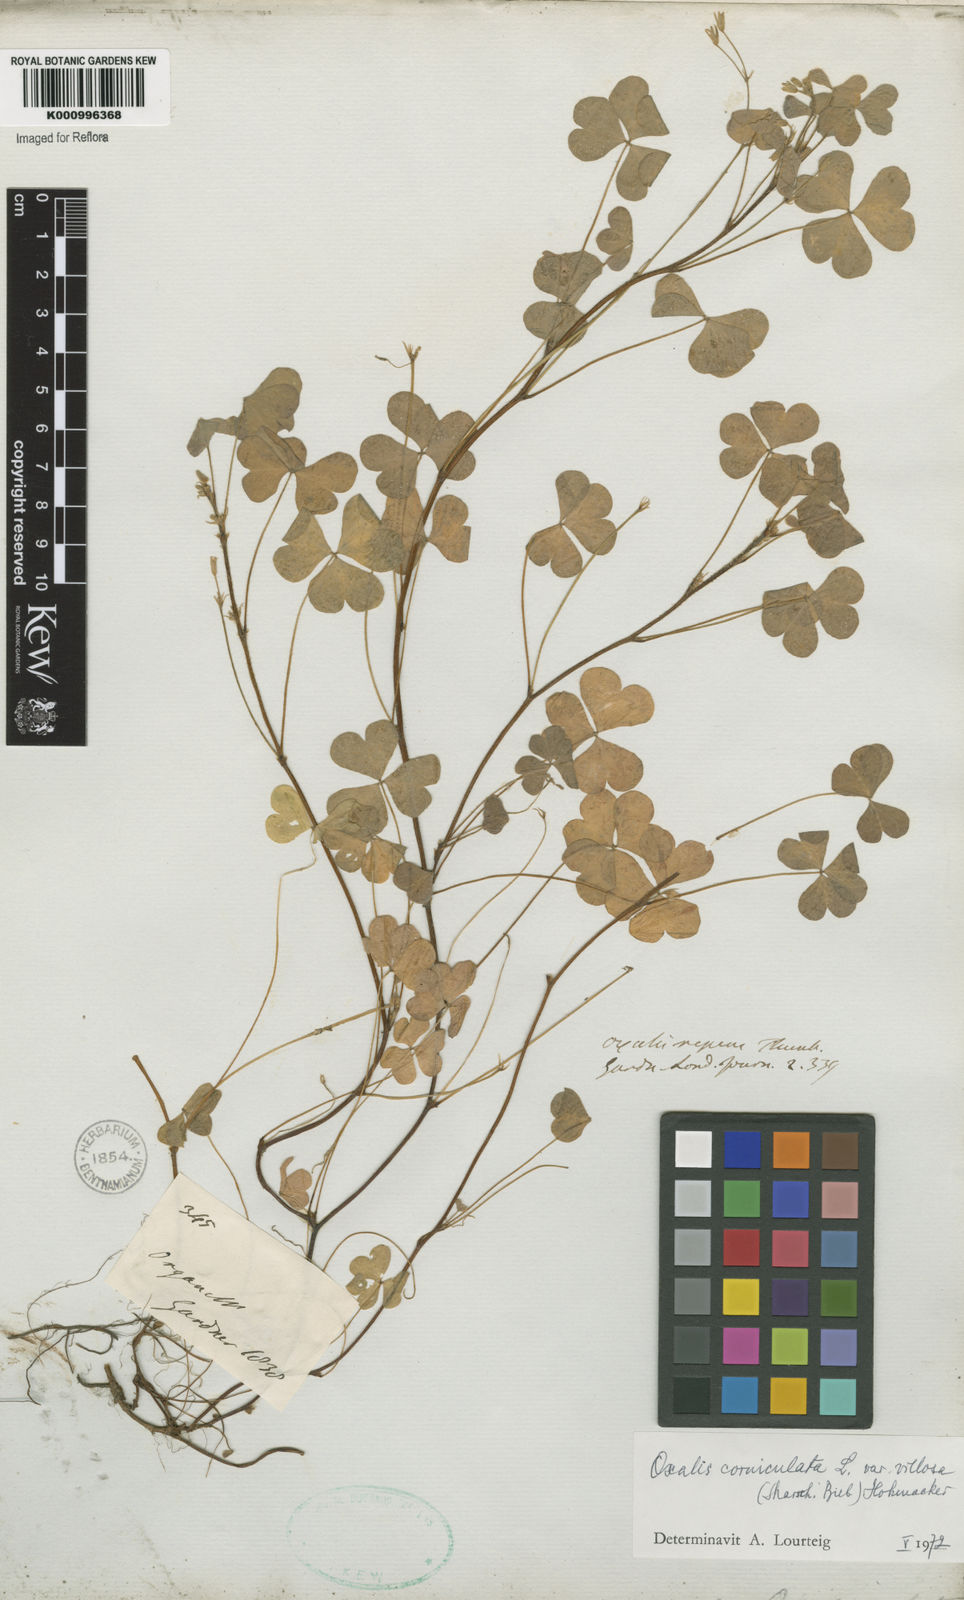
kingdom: Plantae
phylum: Tracheophyta
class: Magnoliopsida
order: Oxalidales
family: Oxalidaceae
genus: Oxalis
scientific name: Oxalis corniculata
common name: Procumbent yellow-sorrel
